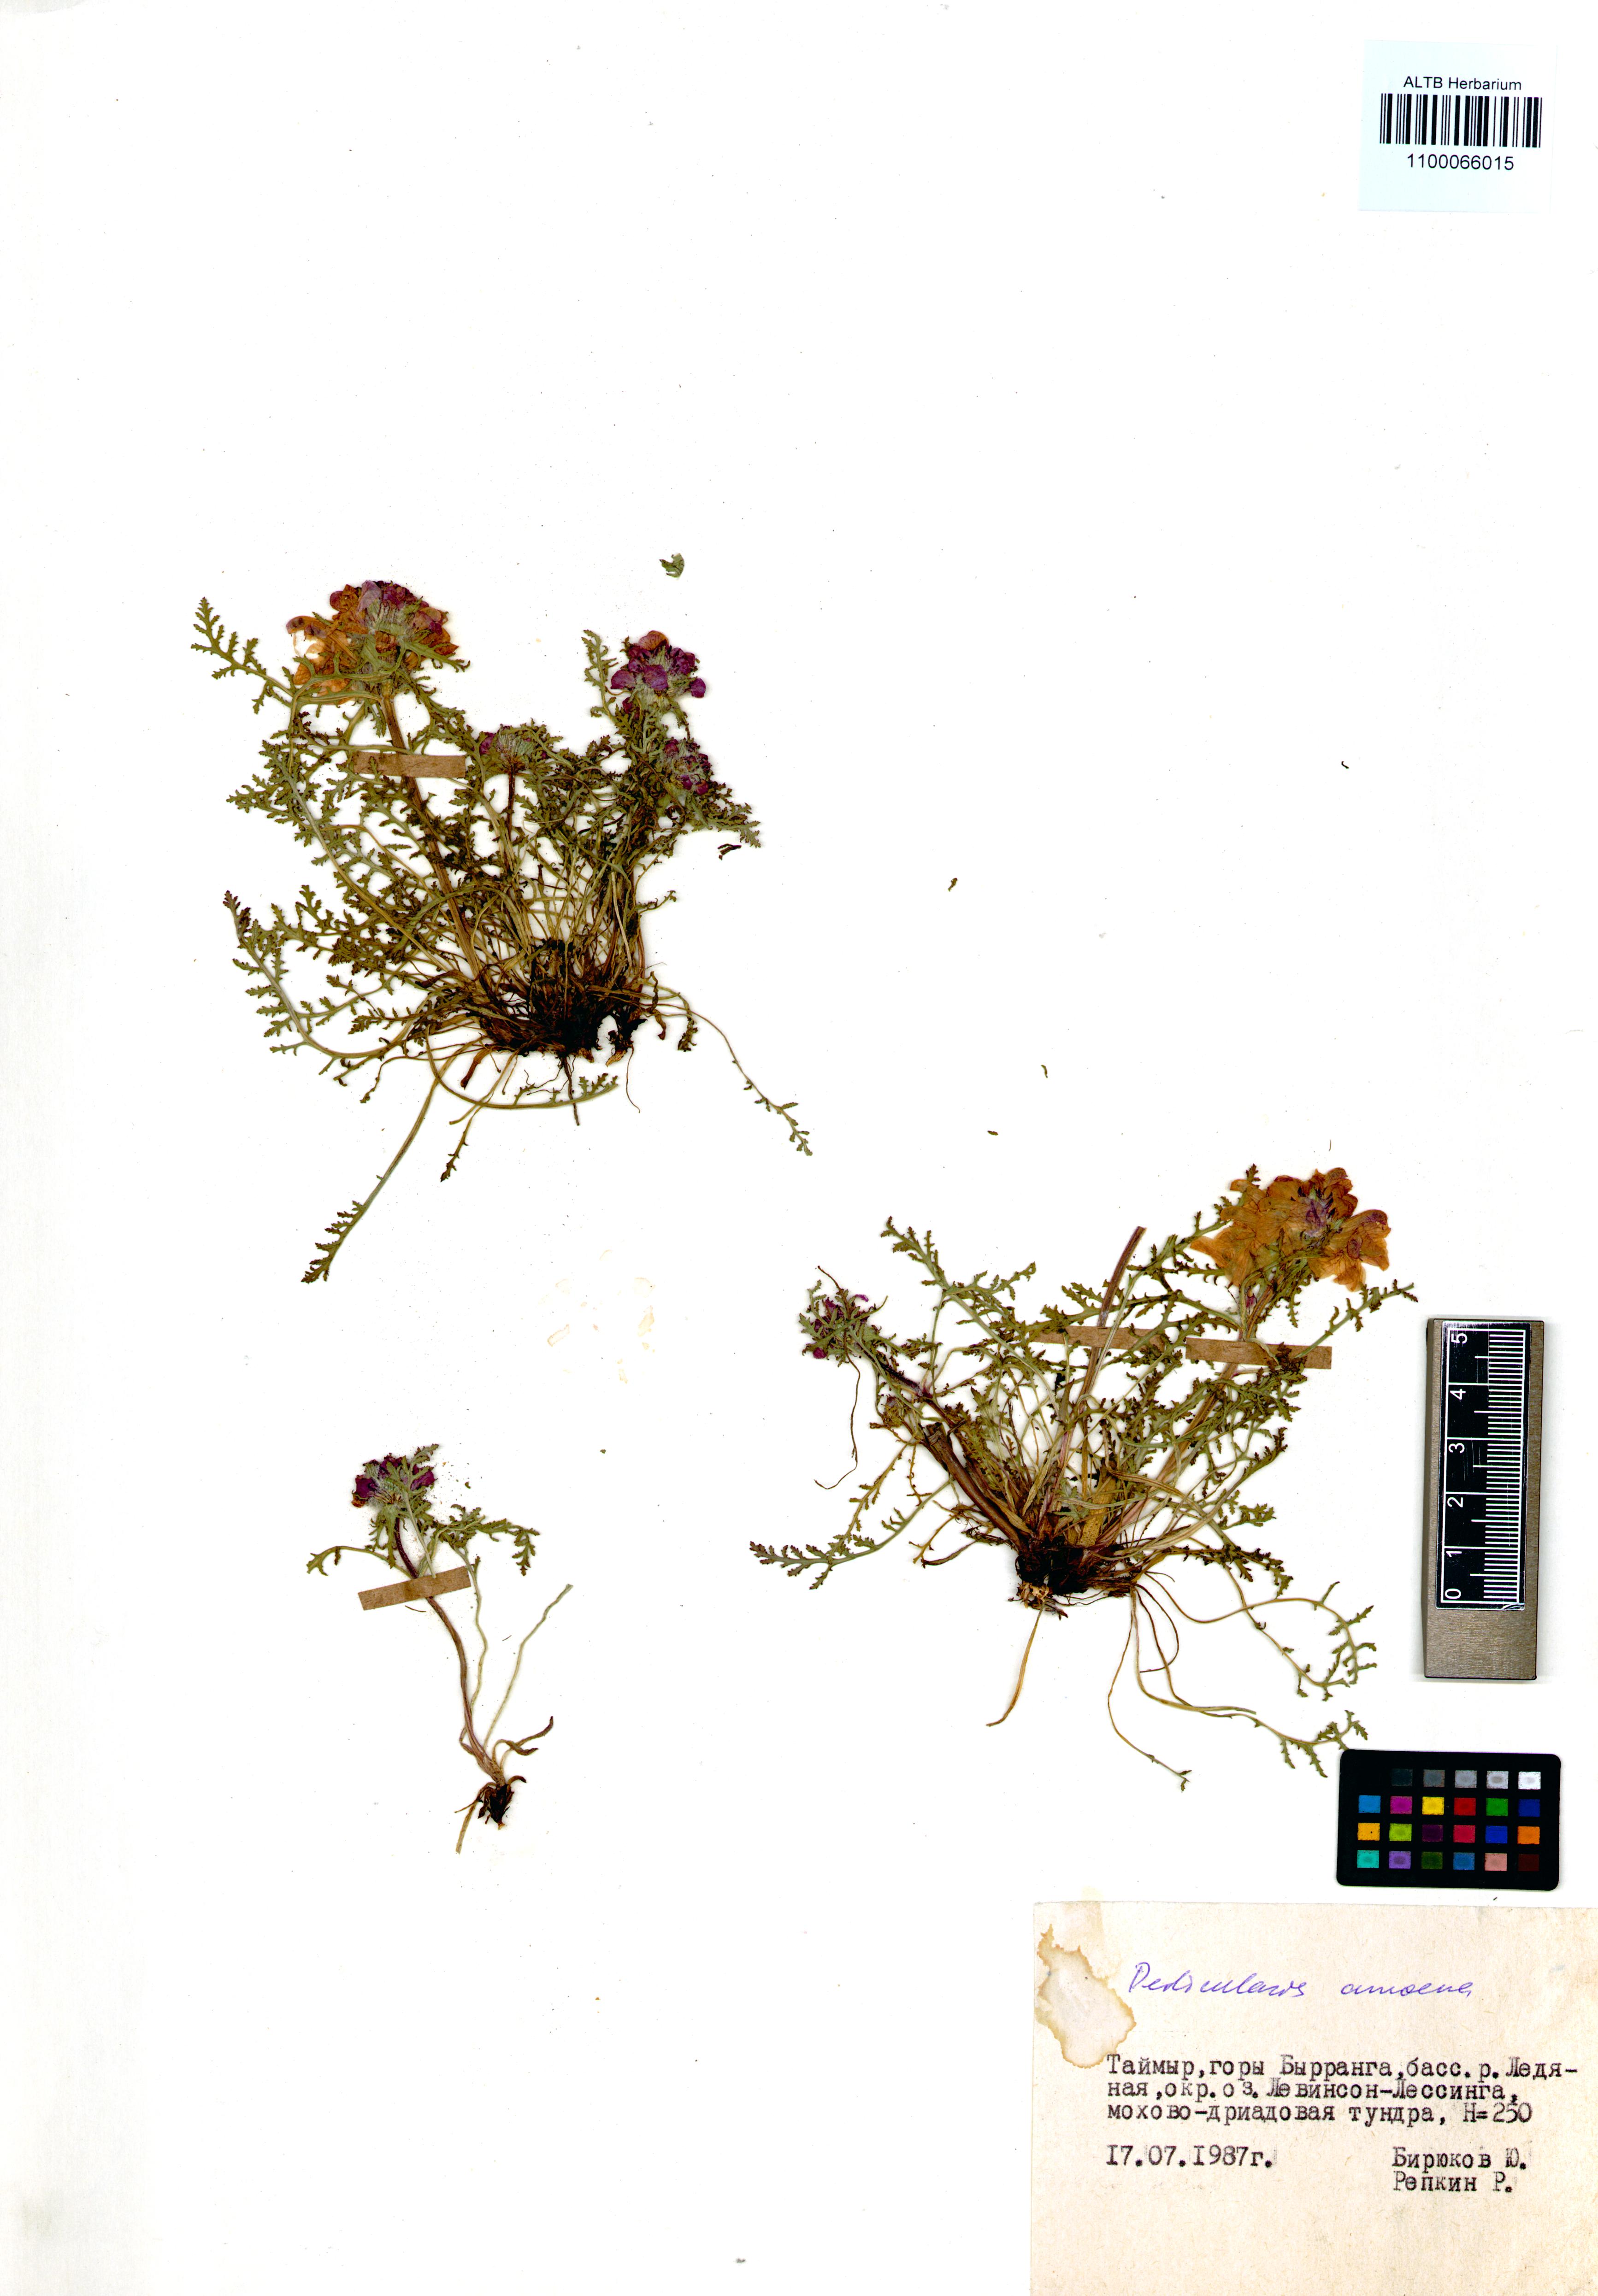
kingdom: Plantae
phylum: Tracheophyta
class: Magnoliopsida
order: Lamiales
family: Orobanchaceae
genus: Pedicularis
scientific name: Pedicularis amoena
